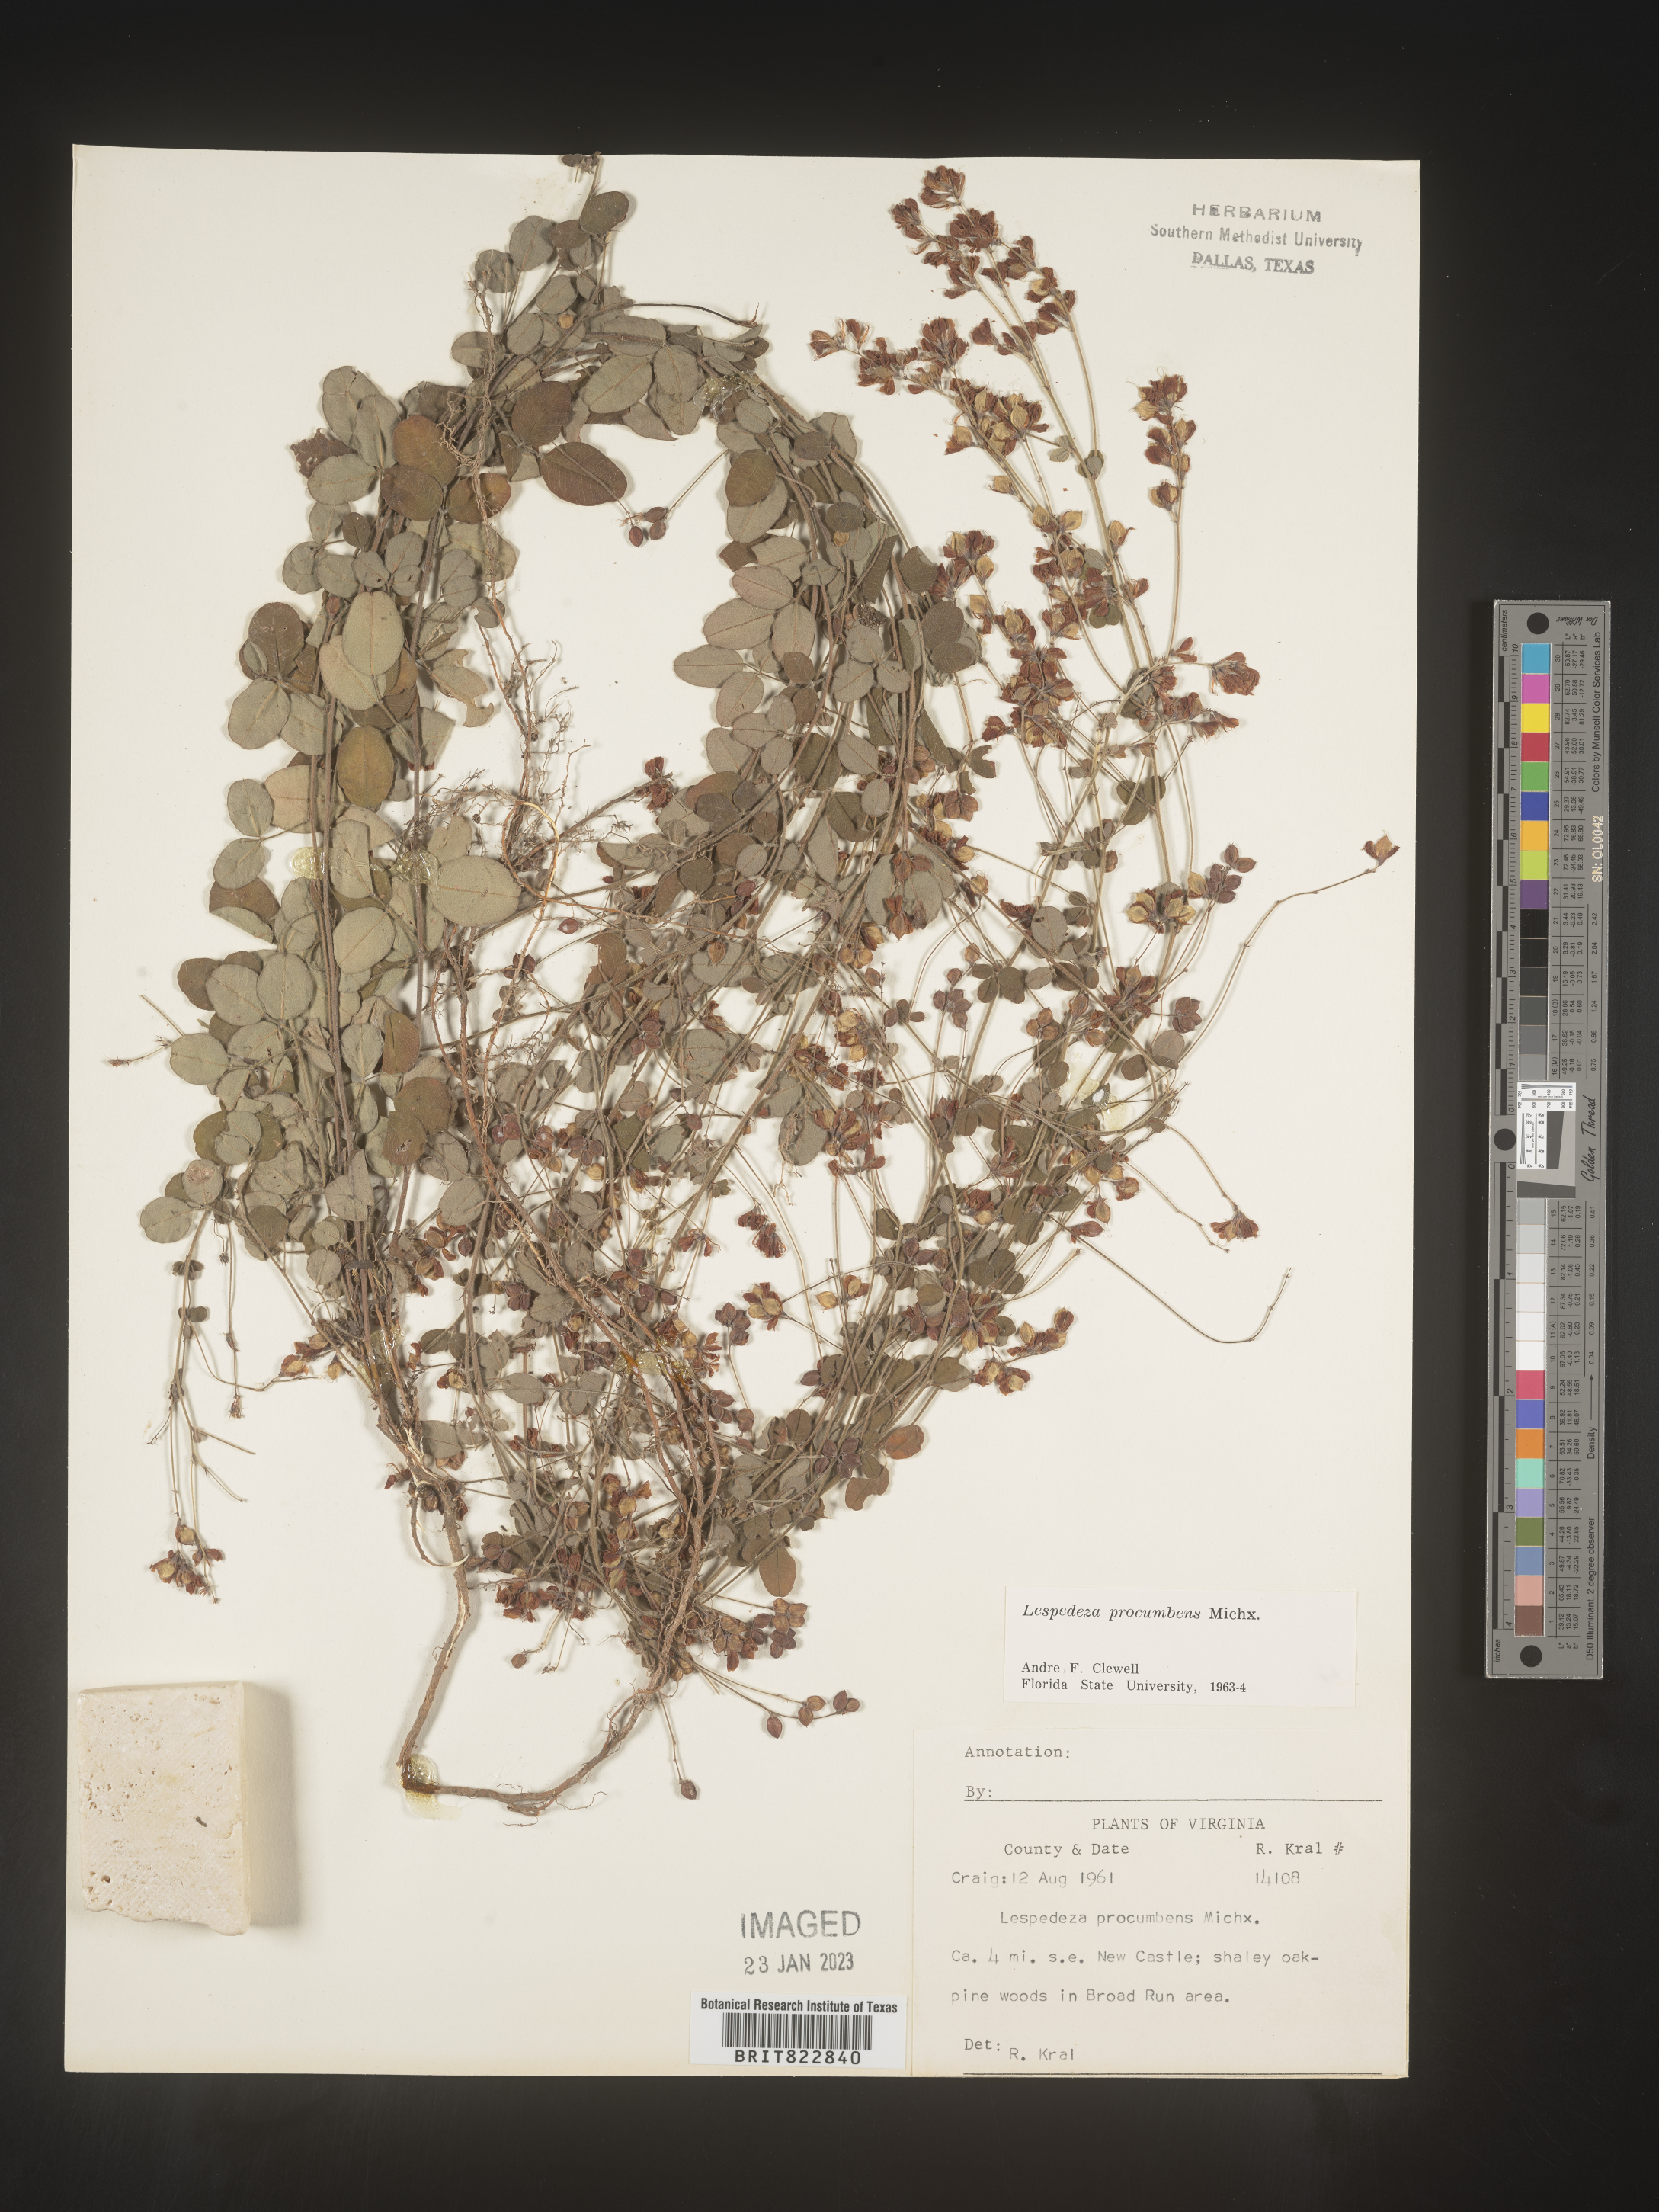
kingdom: Plantae
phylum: Tracheophyta
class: Magnoliopsida
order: Fabales
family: Fabaceae
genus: Lespedeza
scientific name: Lespedeza procumbens
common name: Downy trailing bush-clover
